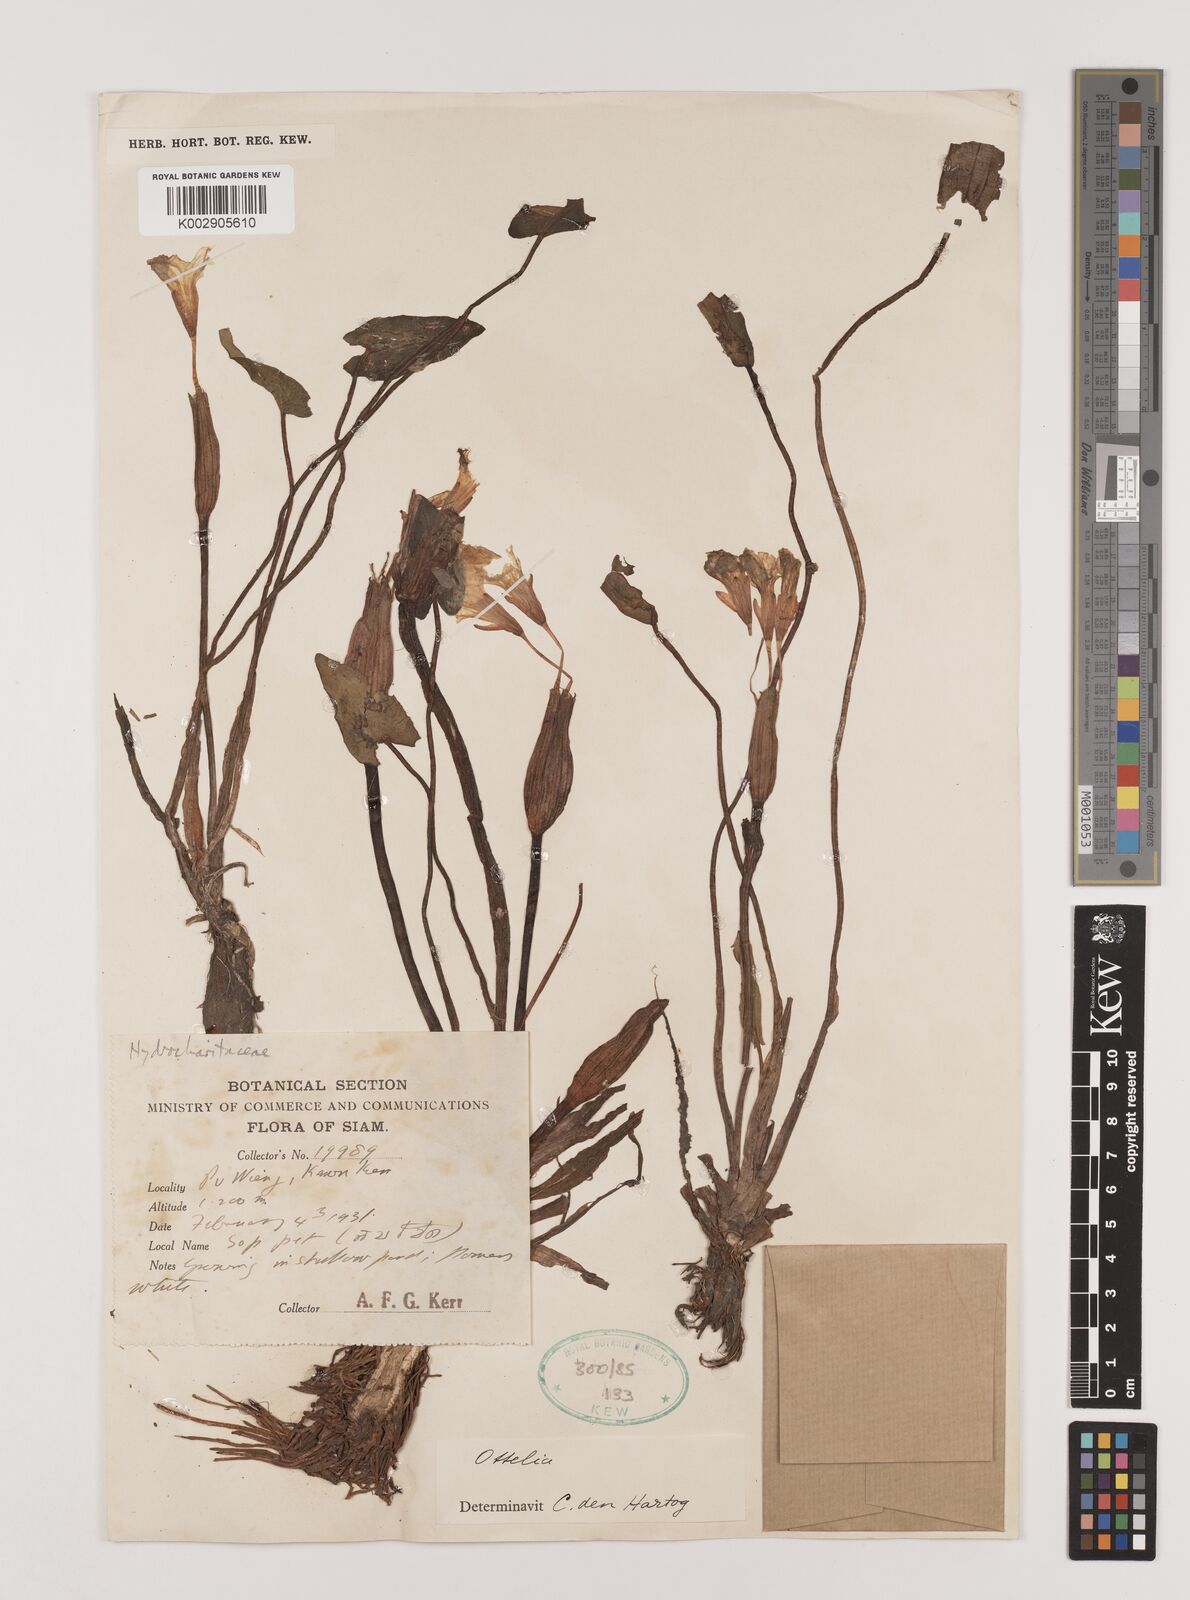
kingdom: Plantae
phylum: Tracheophyta
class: Liliopsida
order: Alismatales
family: Hydrocharitaceae
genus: Ottelia
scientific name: Ottelia alismoides
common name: Duck-lettuce
